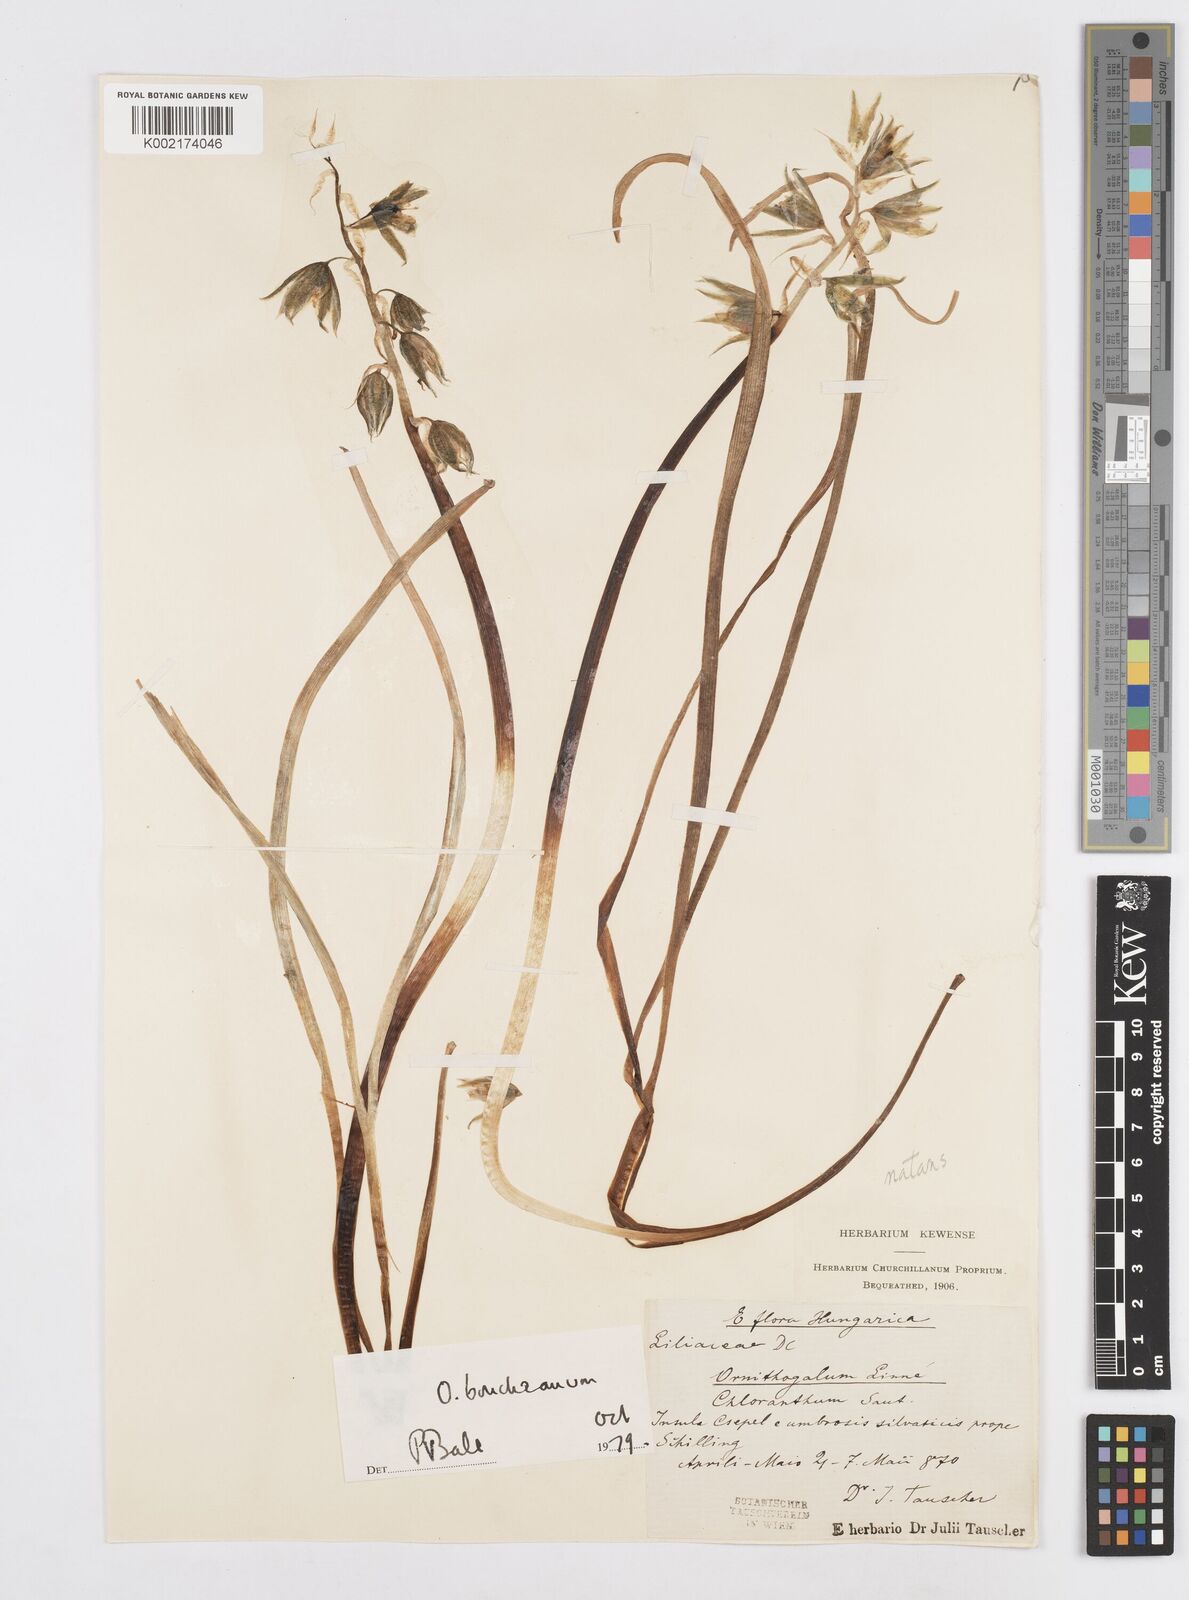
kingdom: Plantae
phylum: Tracheophyta
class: Liliopsida
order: Asparagales
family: Asparagaceae
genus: Ornithogalum
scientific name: Ornithogalum boucheanum
